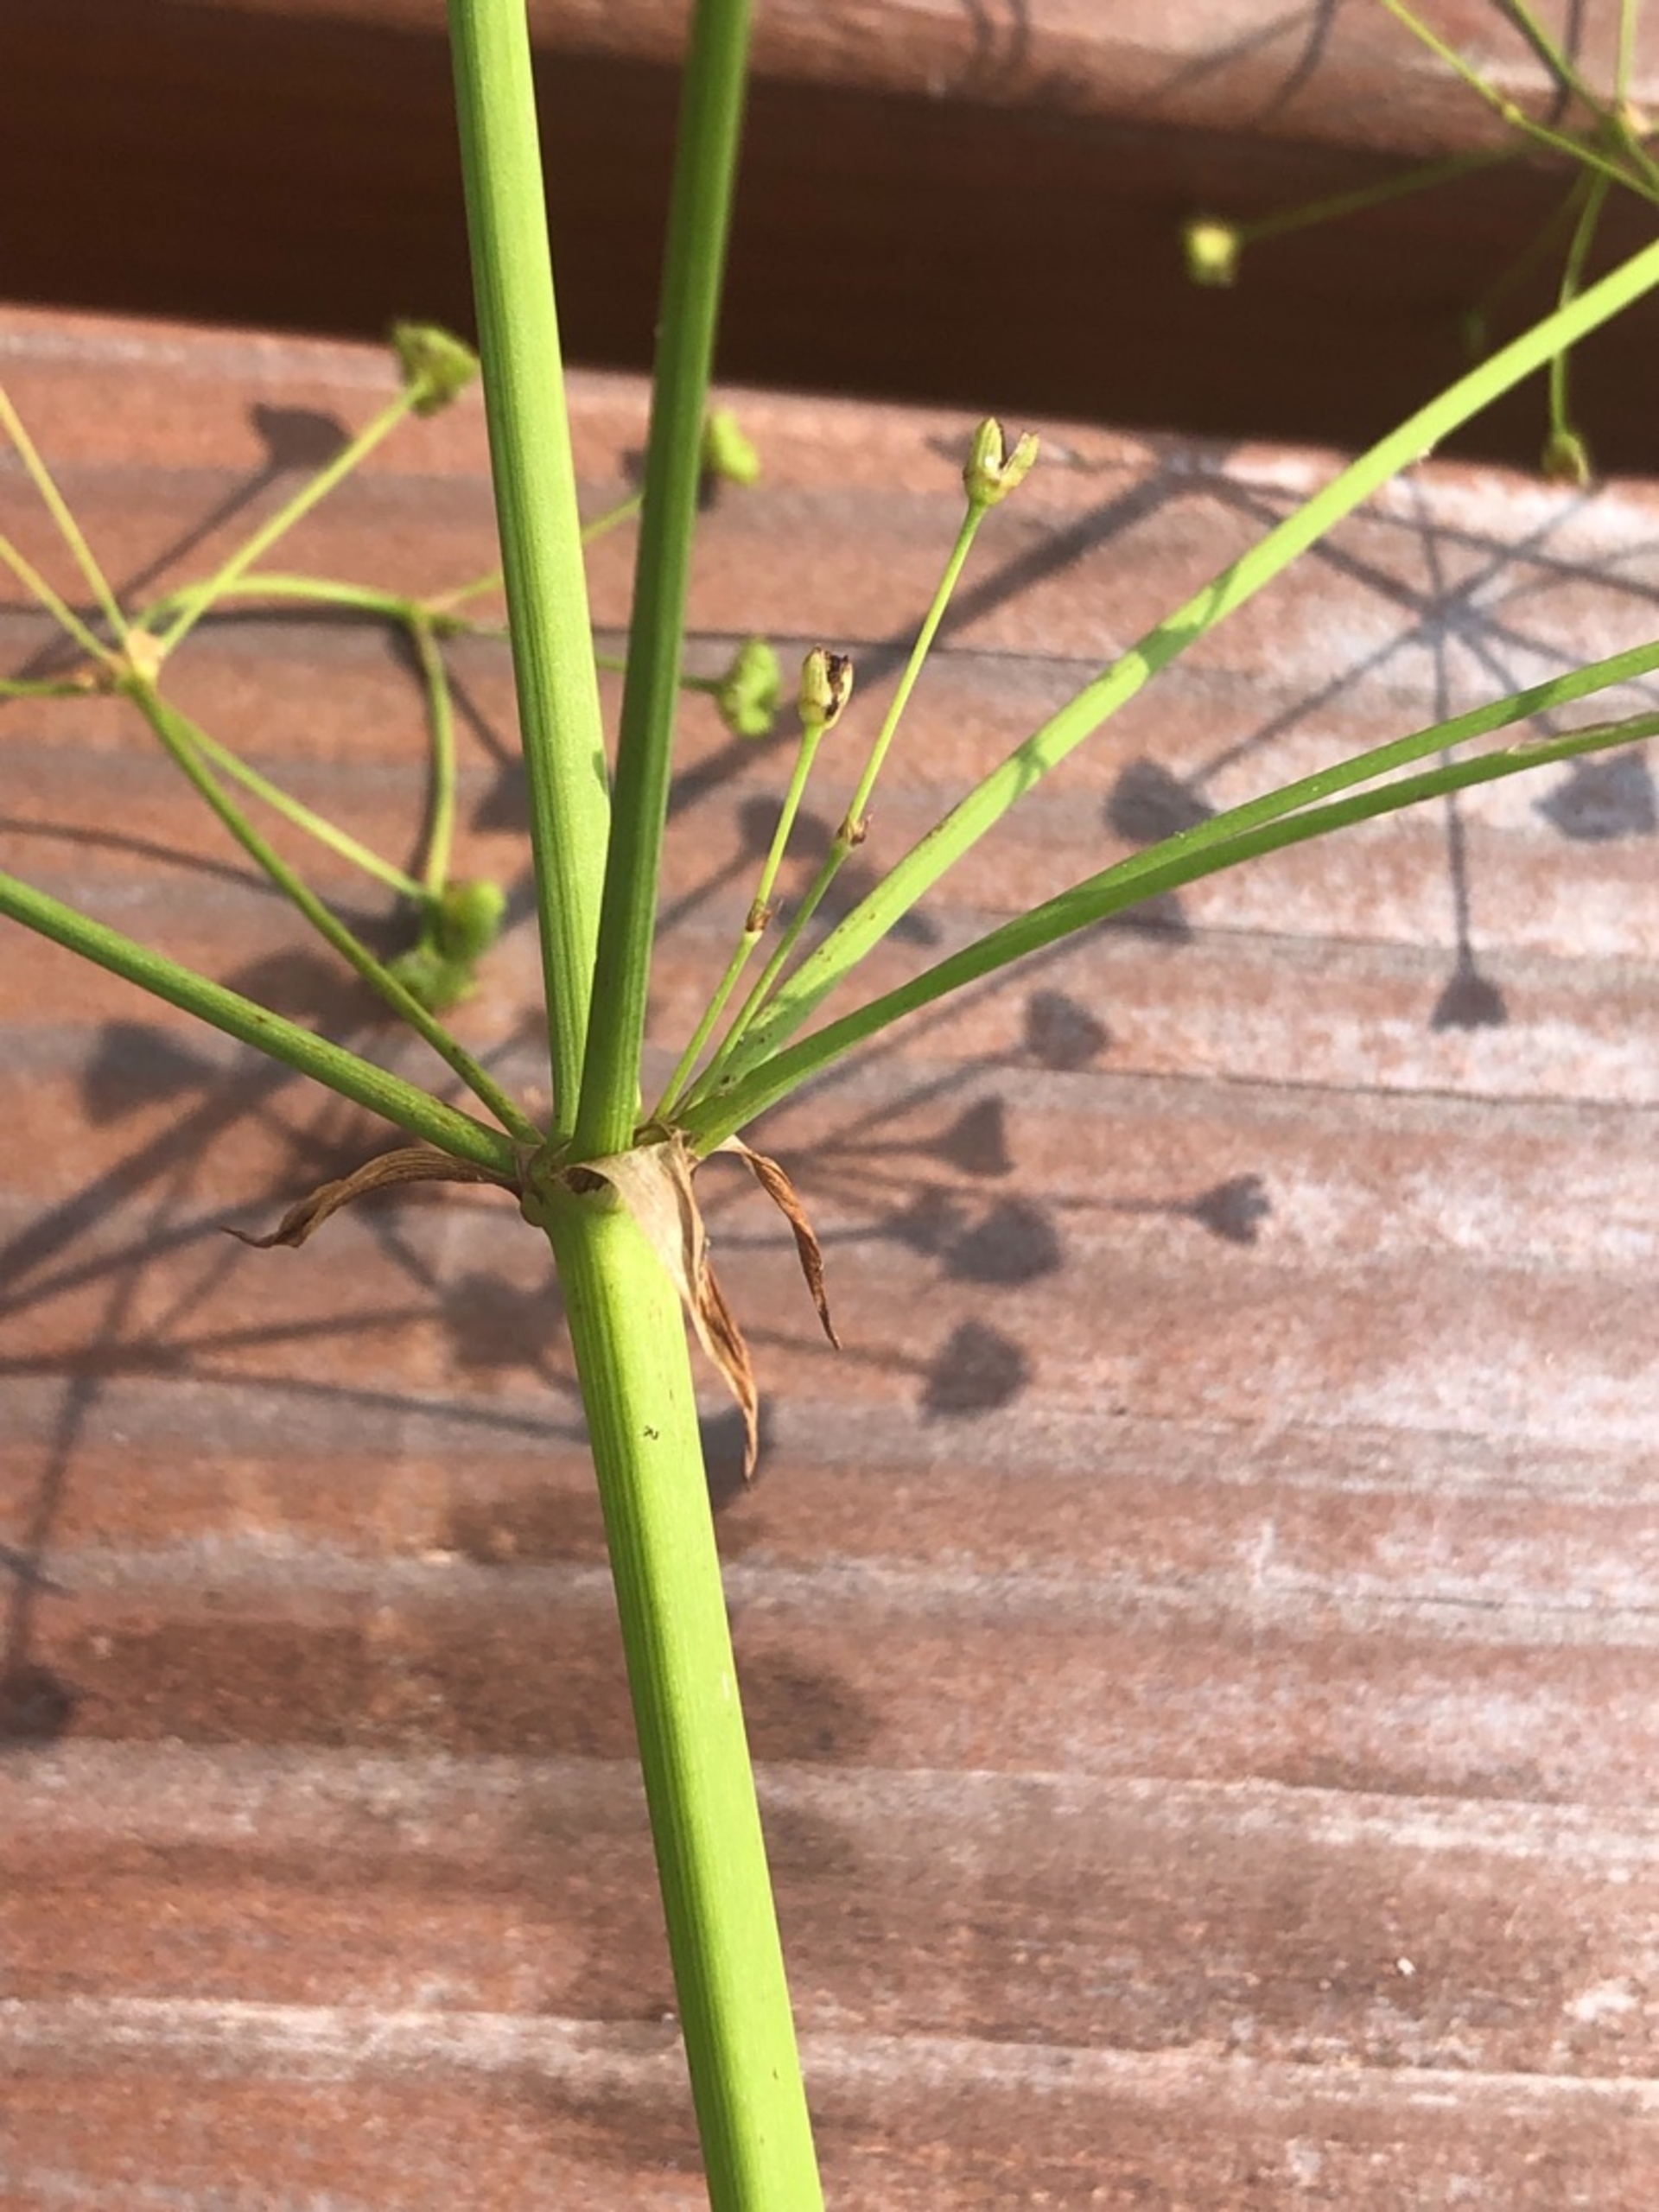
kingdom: Plantae
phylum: Tracheophyta
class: Liliopsida
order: Alismatales
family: Alismataceae
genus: Alisma
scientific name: Alisma plantago-aquatica
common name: Vejbred-skeblad
